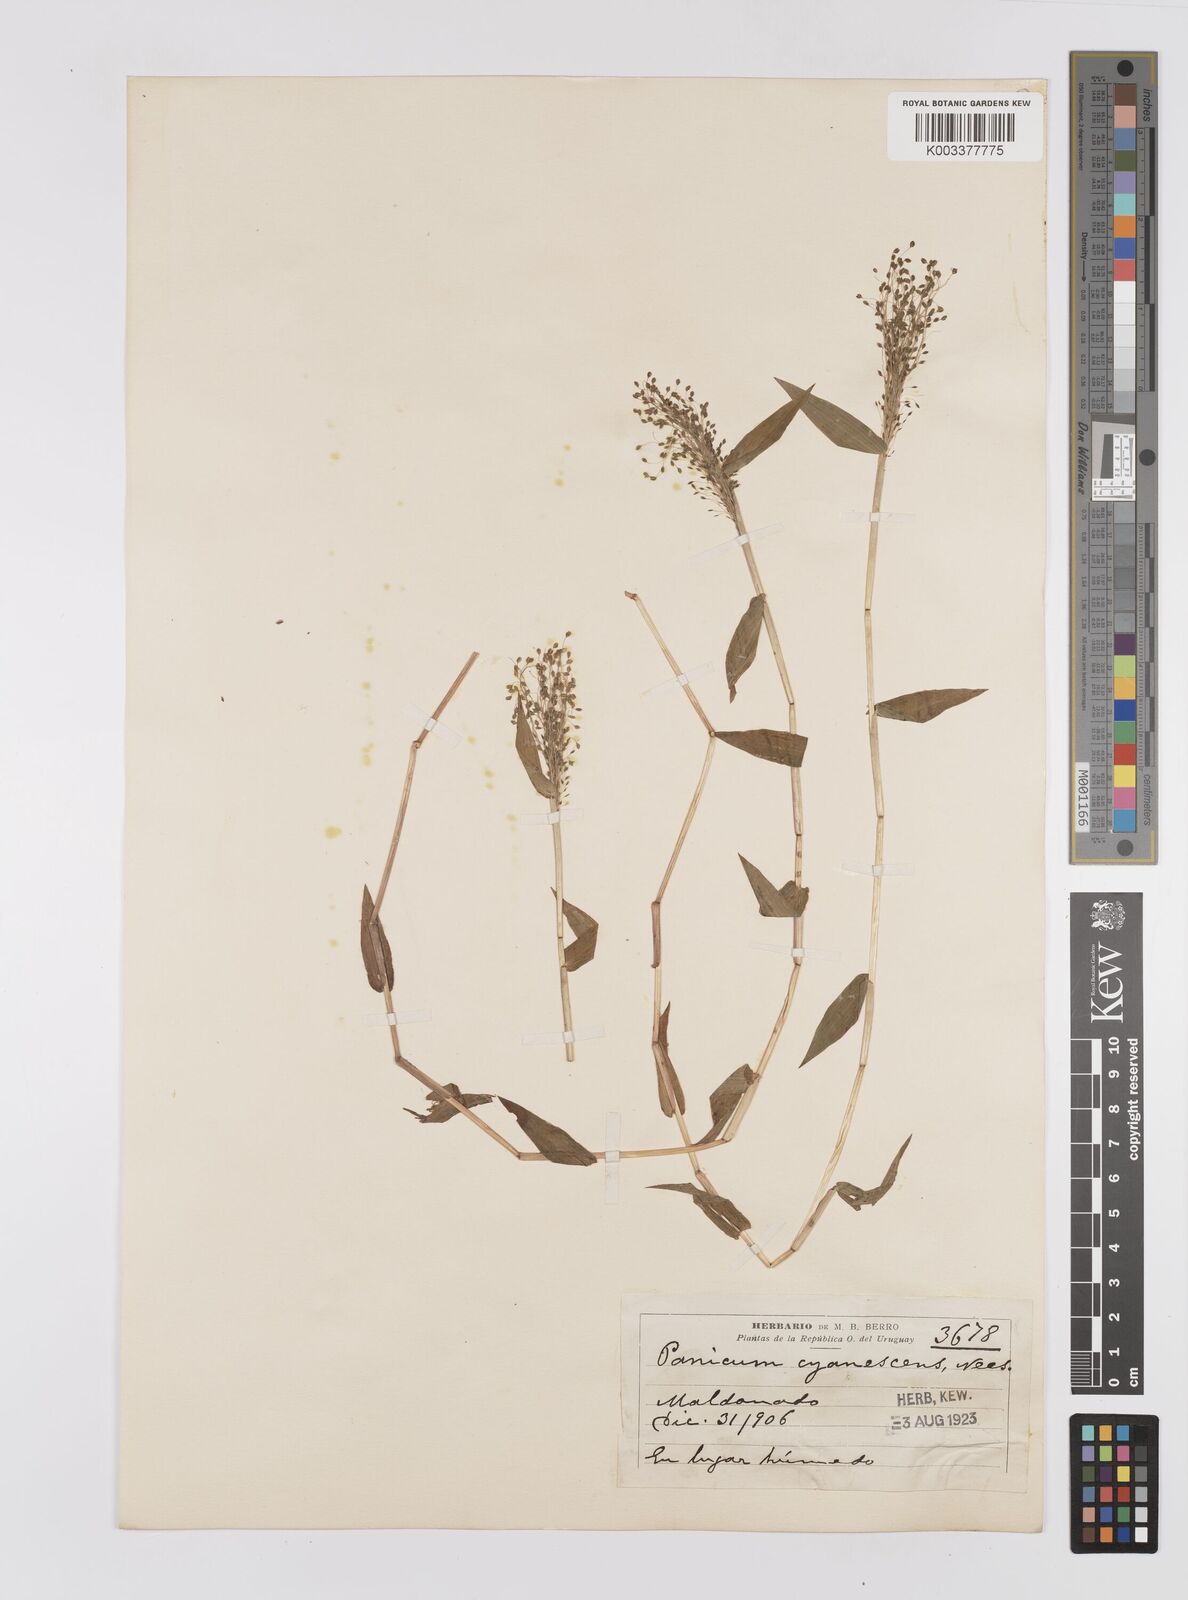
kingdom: Plantae
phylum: Tracheophyta
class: Liliopsida
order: Poales
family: Poaceae
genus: Trichanthecium
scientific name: Trichanthecium schwackeanum
